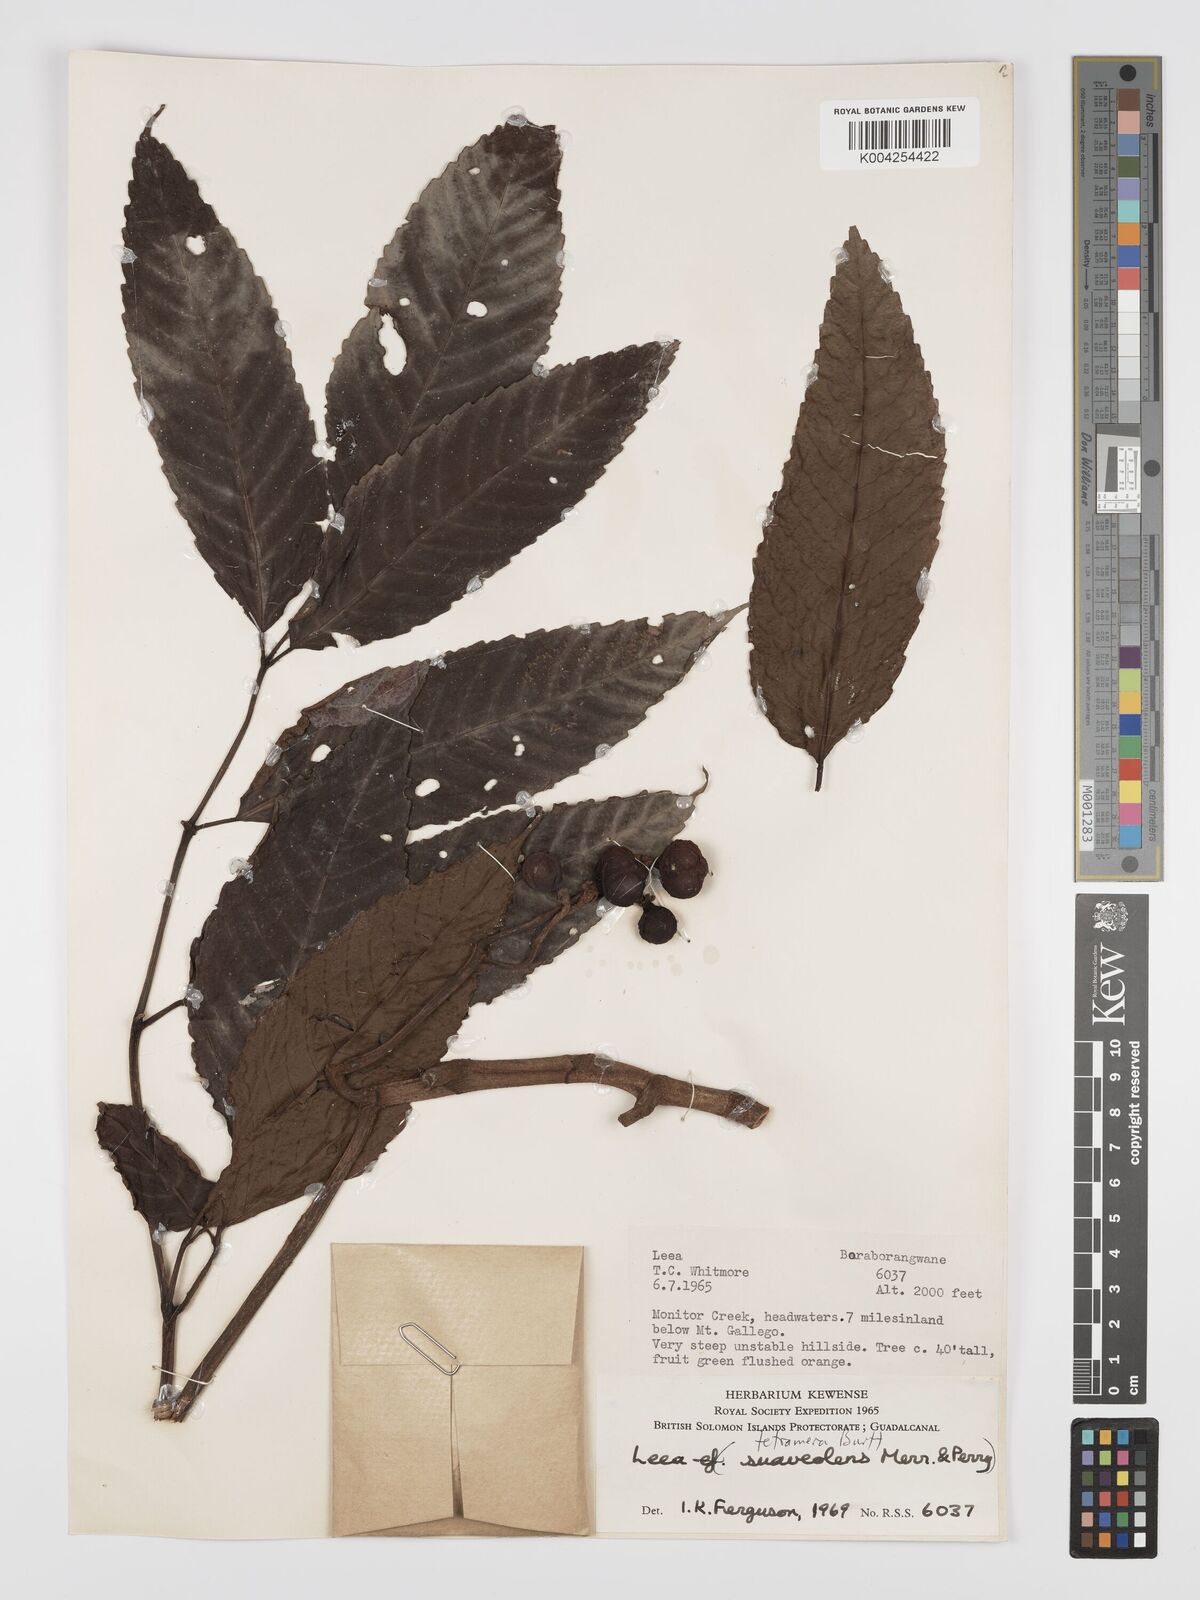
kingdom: Plantae
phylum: Tracheophyta
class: Magnoliopsida
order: Vitales
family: Vitaceae
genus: Leea
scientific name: Leea tetramera
